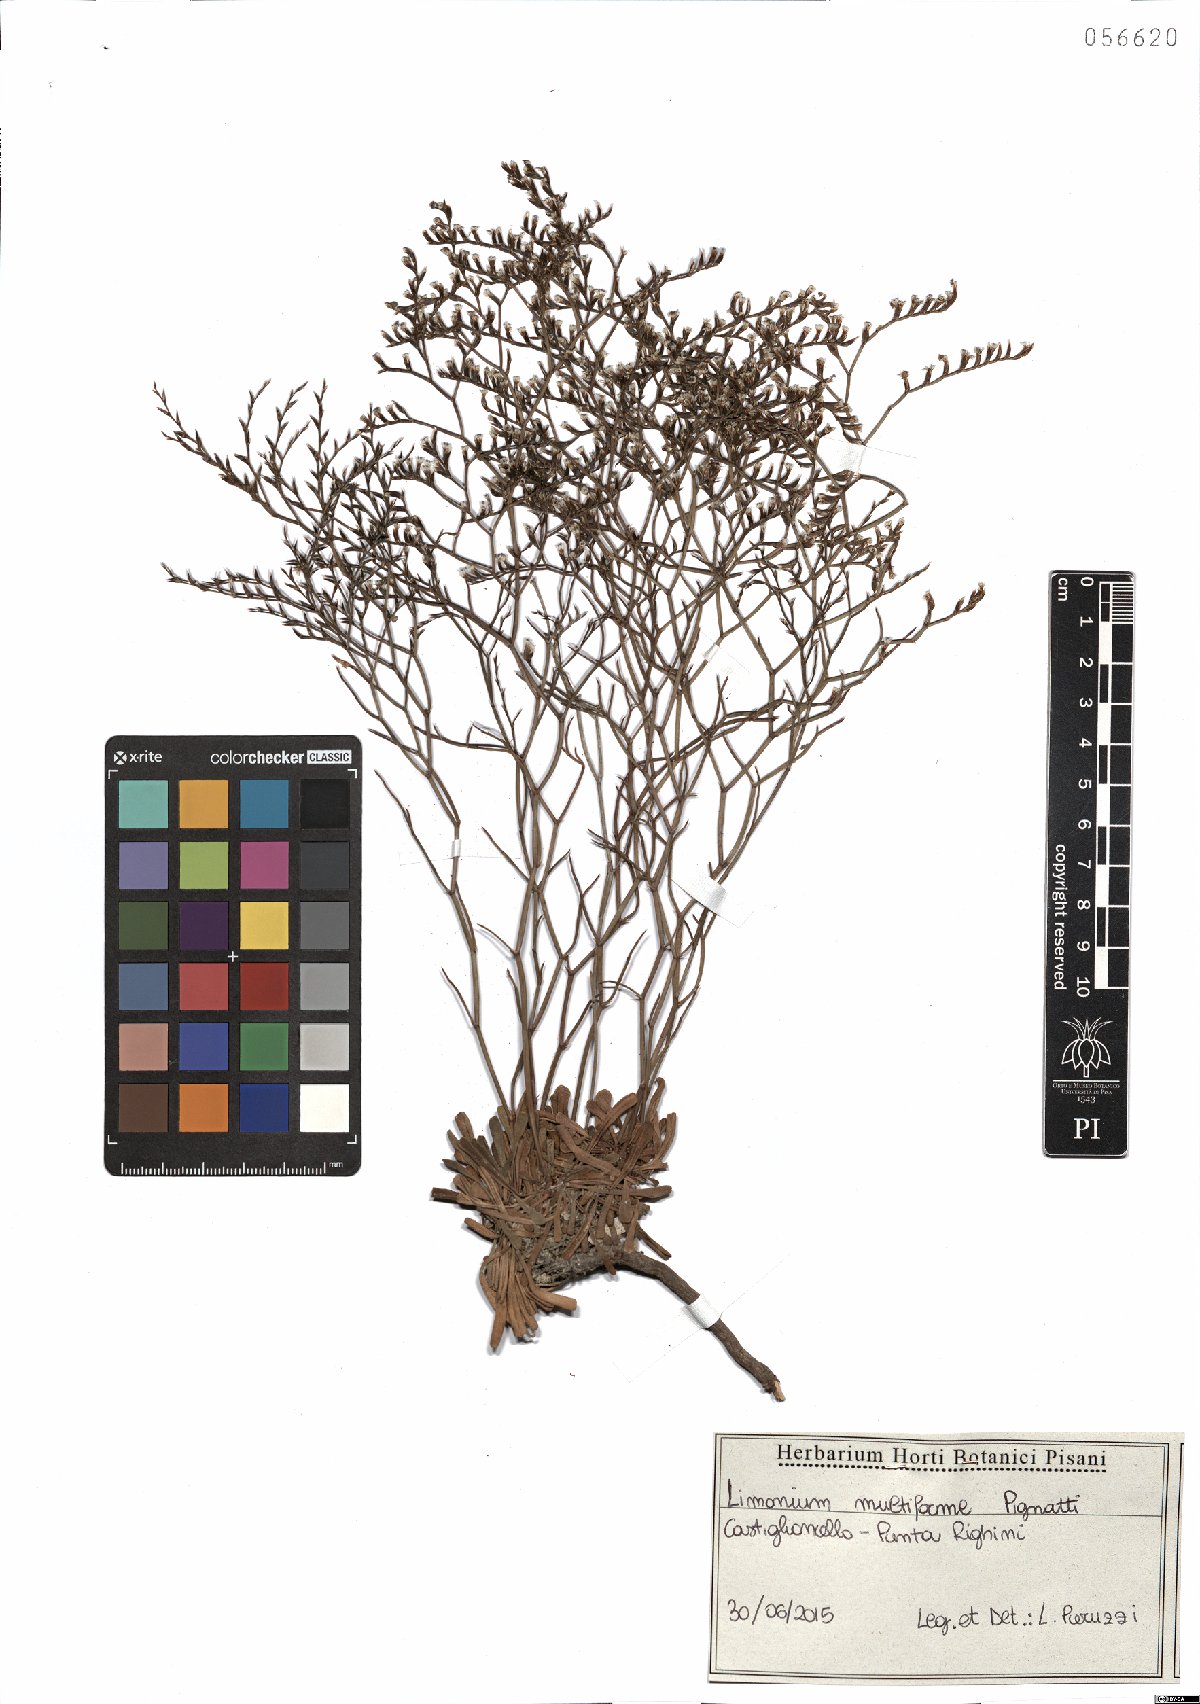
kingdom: Plantae
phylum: Tracheophyta
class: Magnoliopsida
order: Caryophyllales
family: Plumbaginaceae
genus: Limonium
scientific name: Limonium multiforme
